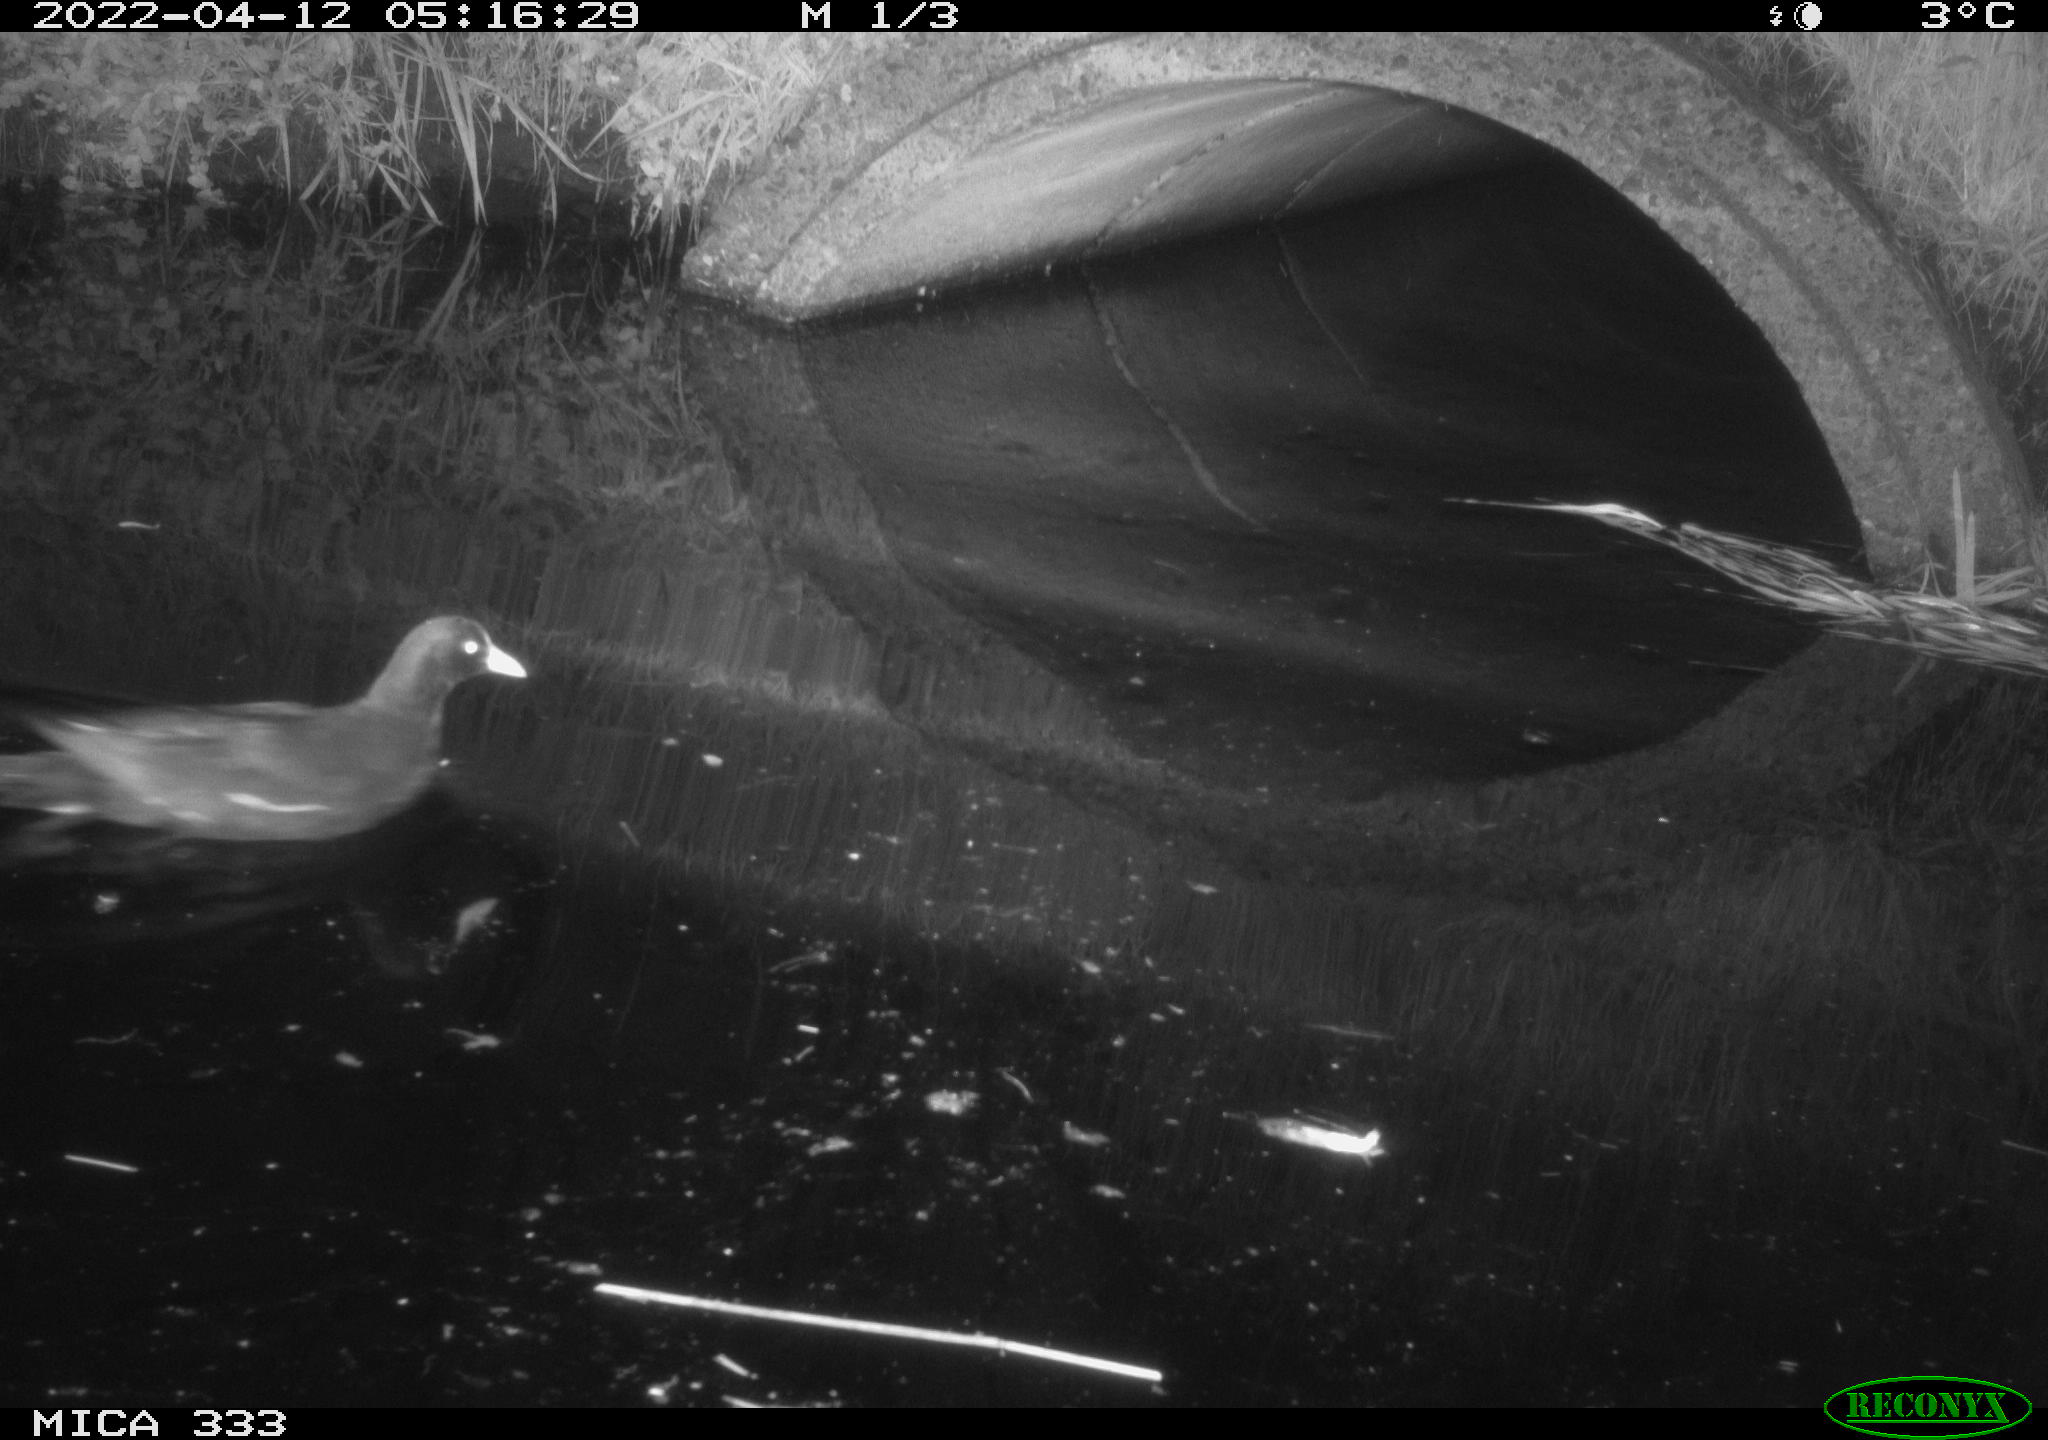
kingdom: Animalia
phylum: Chordata
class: Aves
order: Gruiformes
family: Rallidae
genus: Gallinula
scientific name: Gallinula chloropus
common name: Common moorhen
